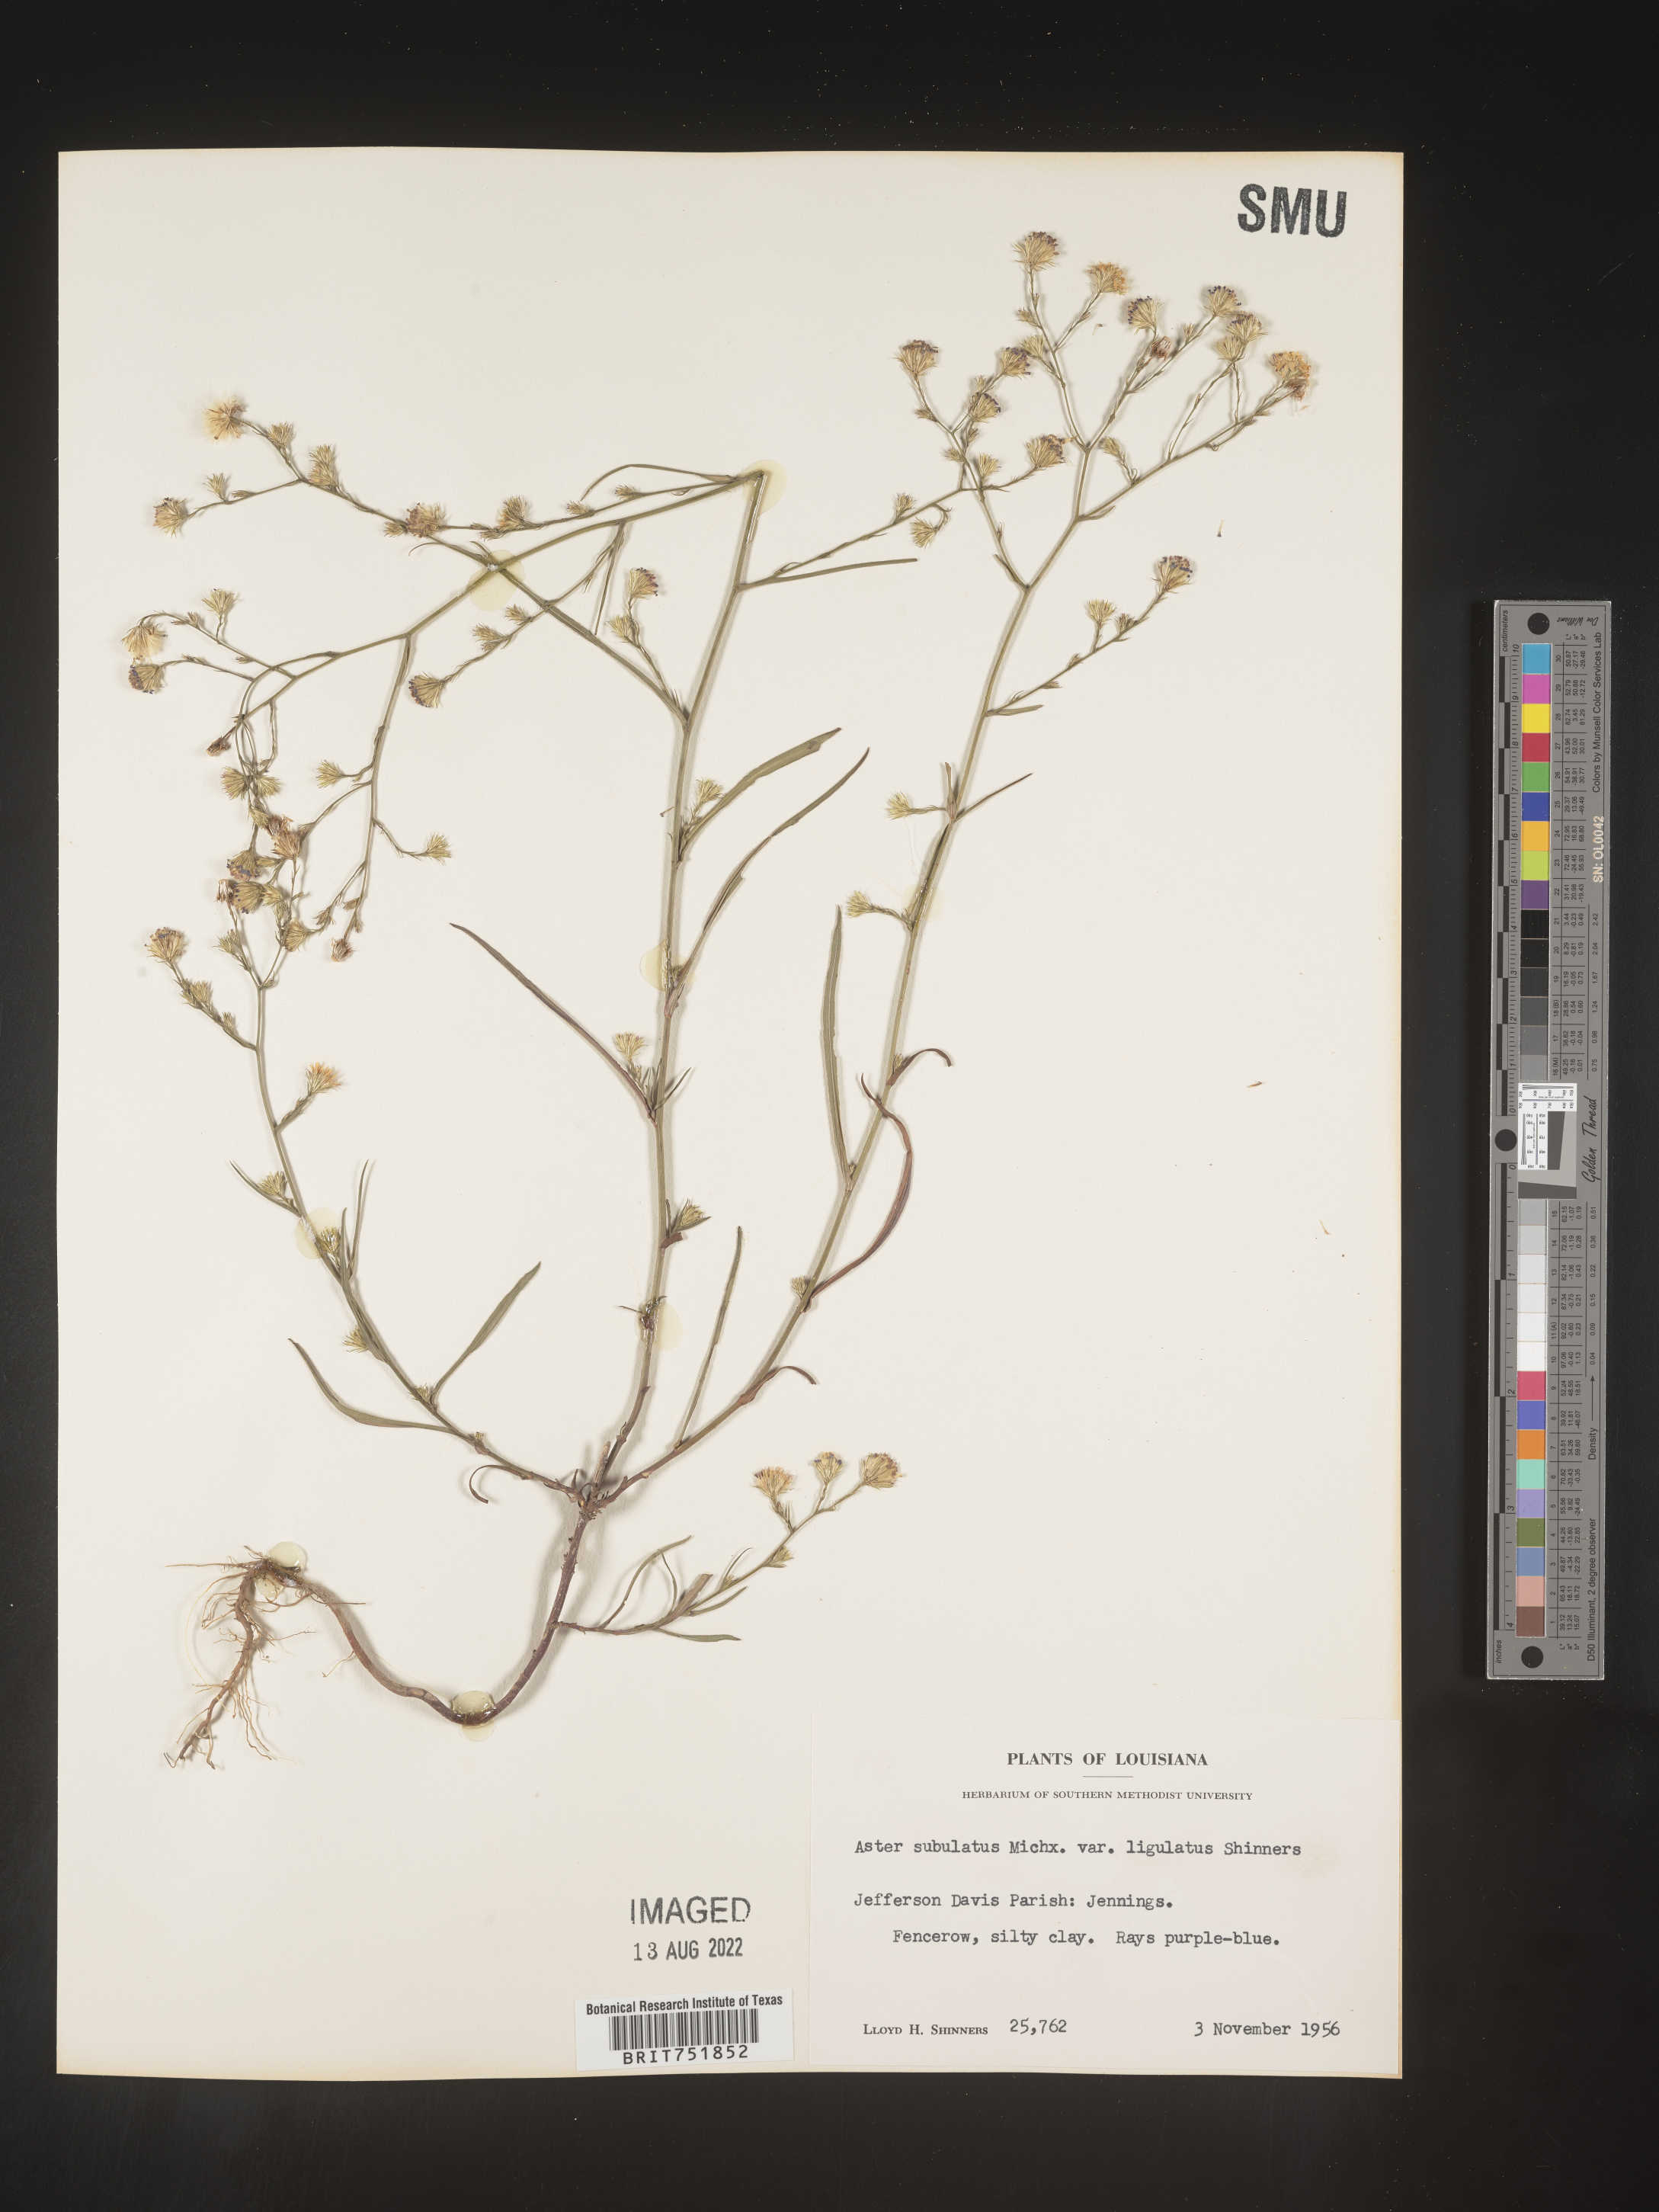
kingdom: Plantae
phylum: Tracheophyta
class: Magnoliopsida
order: Asterales
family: Asteraceae
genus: Symphyotrichum
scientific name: Symphyotrichum divaricatum
